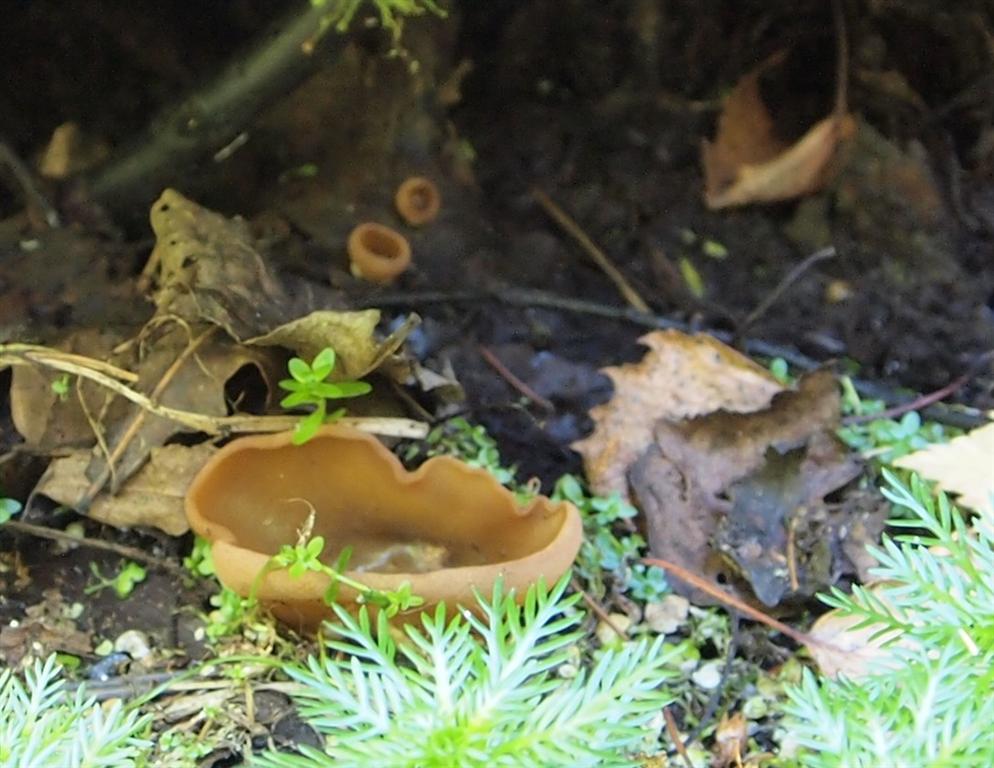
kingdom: Fungi
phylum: Ascomycota
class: Pezizomycetes
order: Pezizales
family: Pezizaceae
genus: Legaliana
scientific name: Legaliana limnaea
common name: mose-bægersvamp
